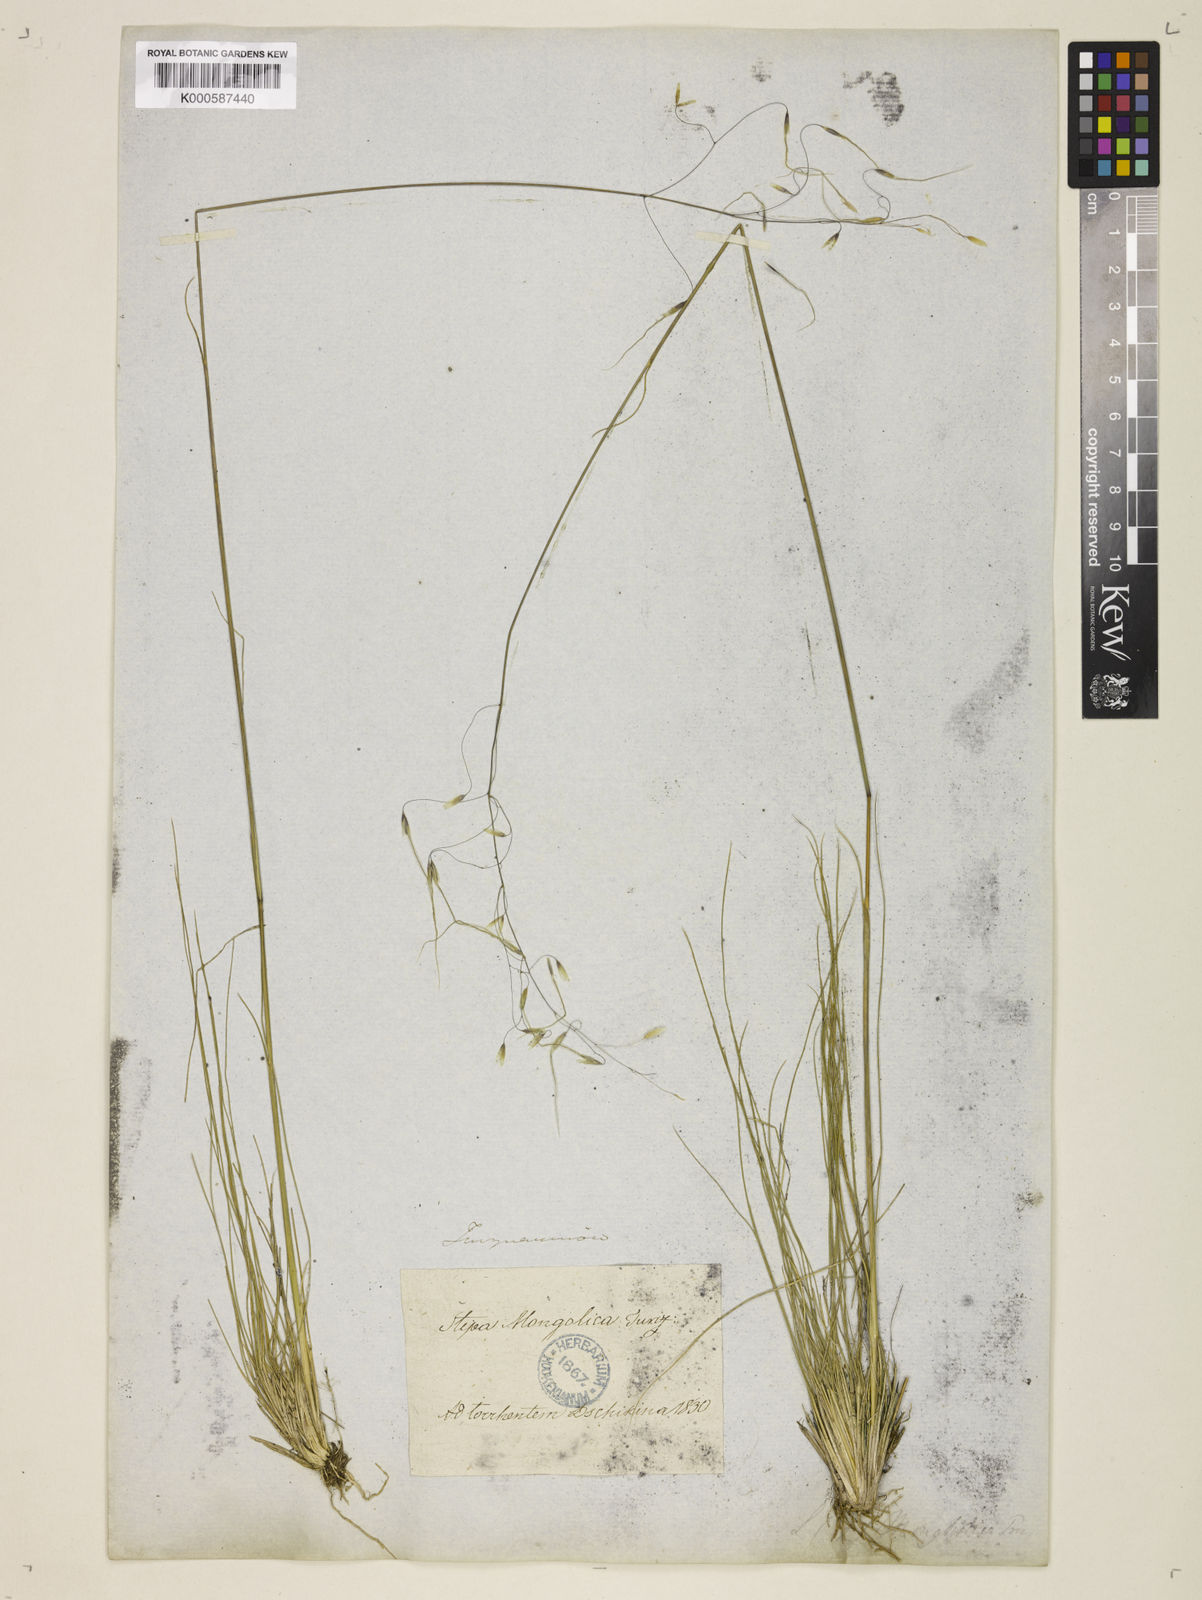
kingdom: Plantae
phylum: Tracheophyta
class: Liliopsida
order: Poales
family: Poaceae
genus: Ptilagrostis
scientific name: Ptilagrostis mongholica
